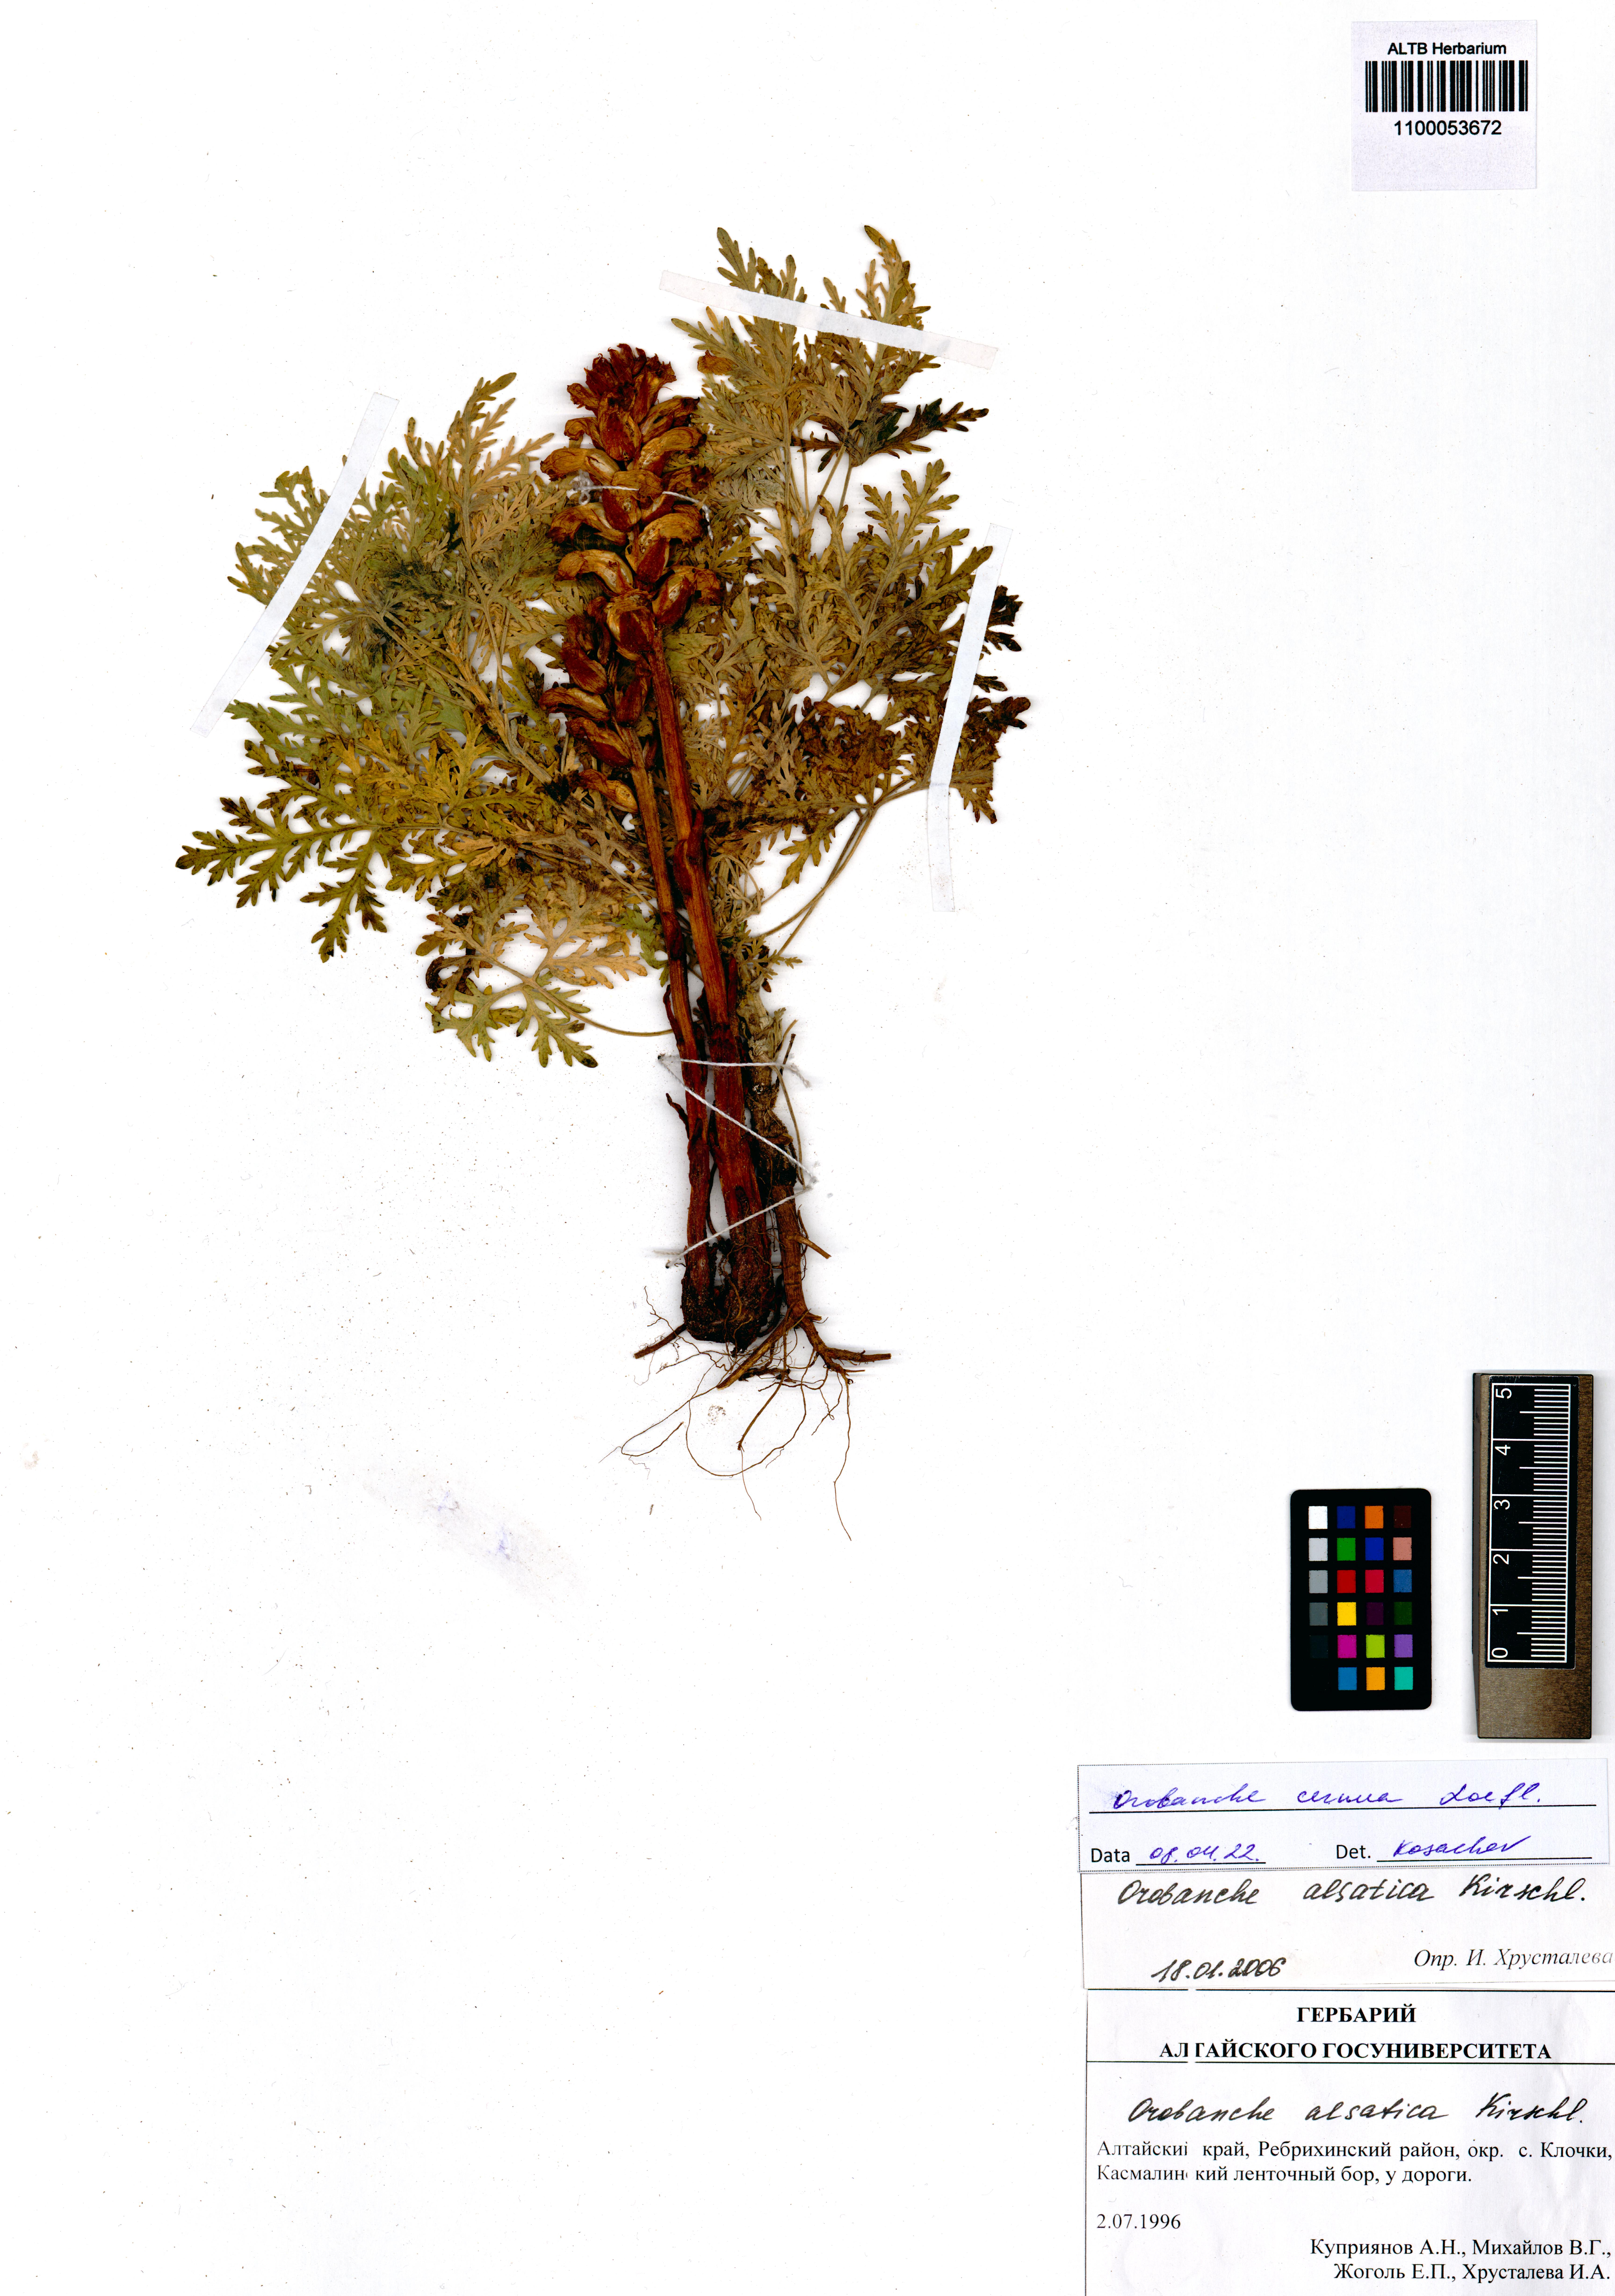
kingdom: Plantae
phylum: Tracheophyta
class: Magnoliopsida
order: Lamiales
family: Orobanchaceae
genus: Orobanche
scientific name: Orobanche cernua
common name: Australian broomrape
